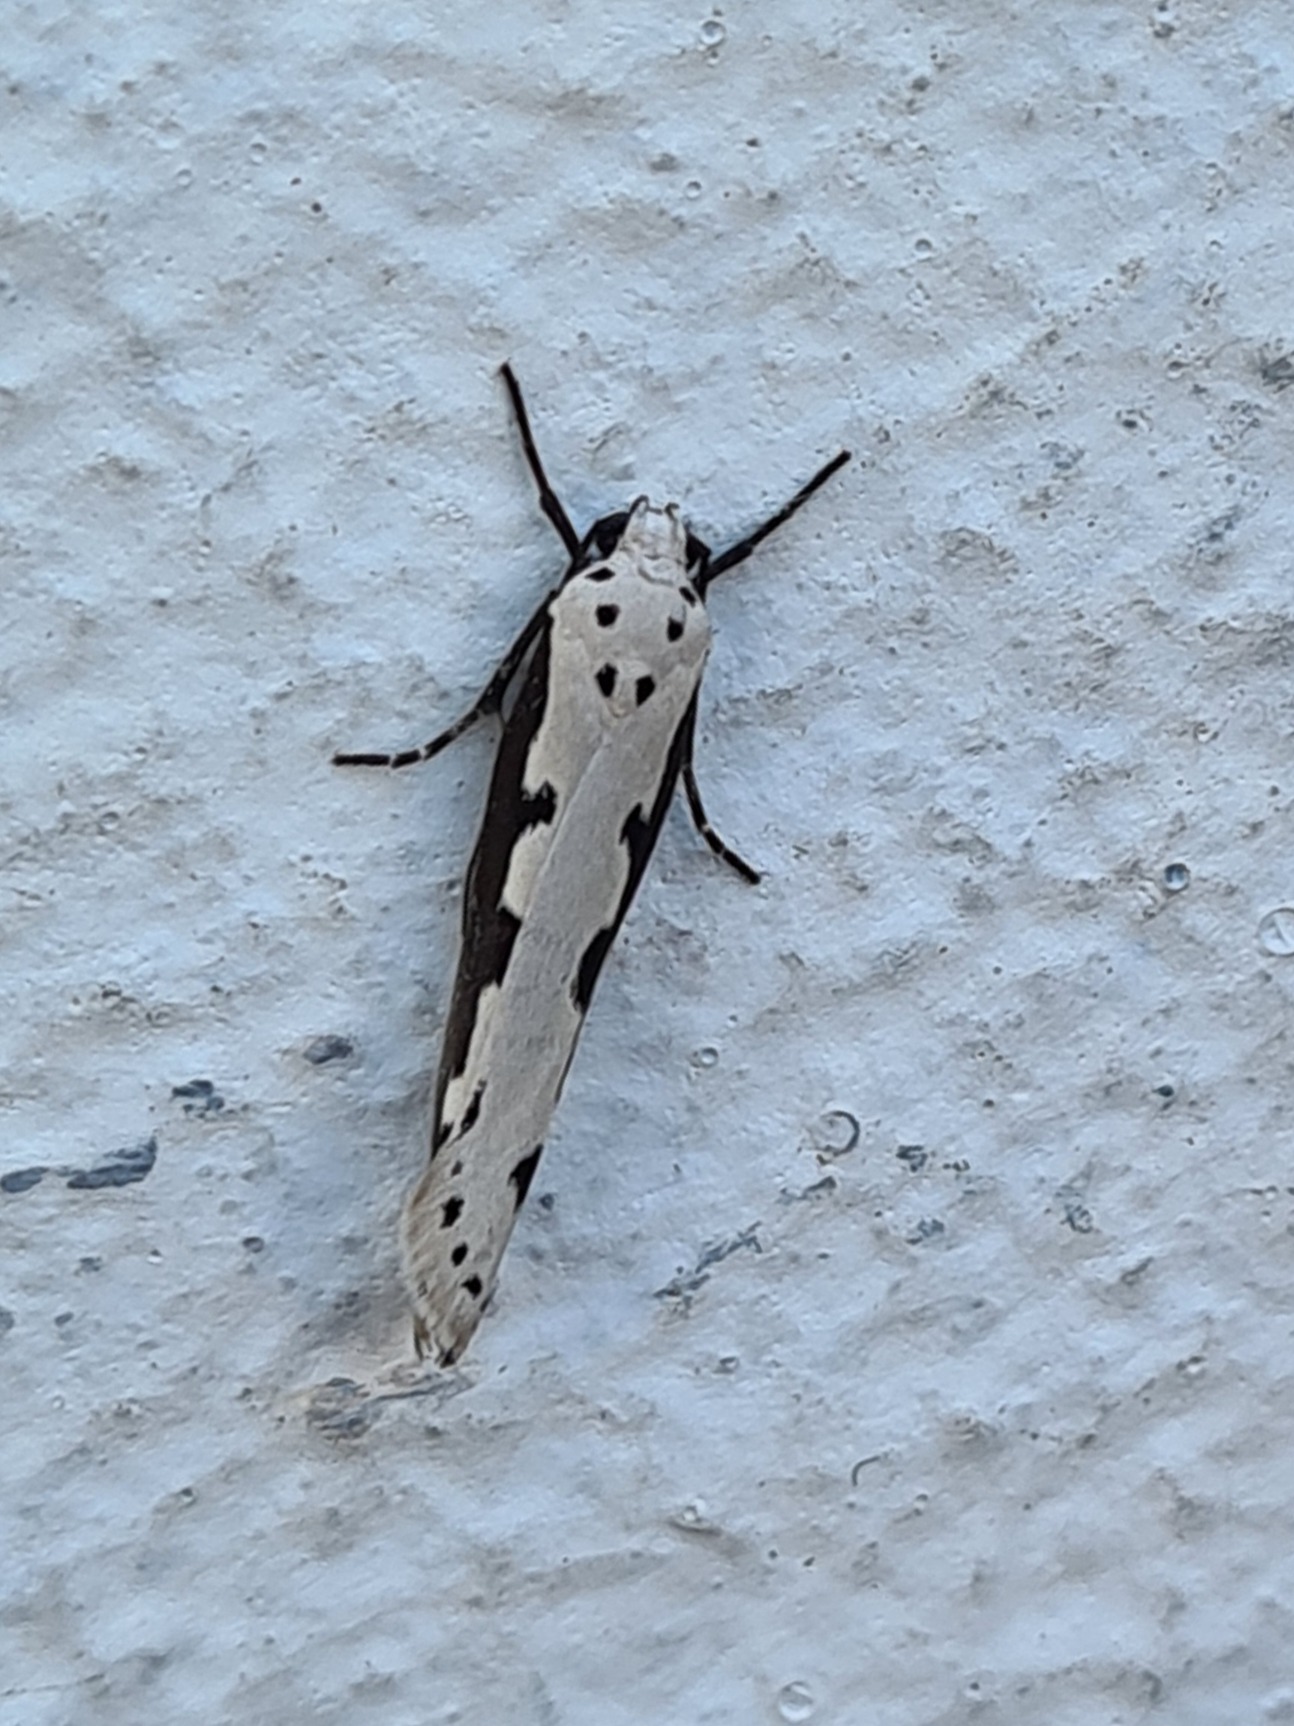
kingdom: Animalia
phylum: Arthropoda
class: Insecta
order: Lepidoptera
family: Ethmiidae
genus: Ethmia
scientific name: Ethmia bipunctella
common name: Slangehovedmøl
